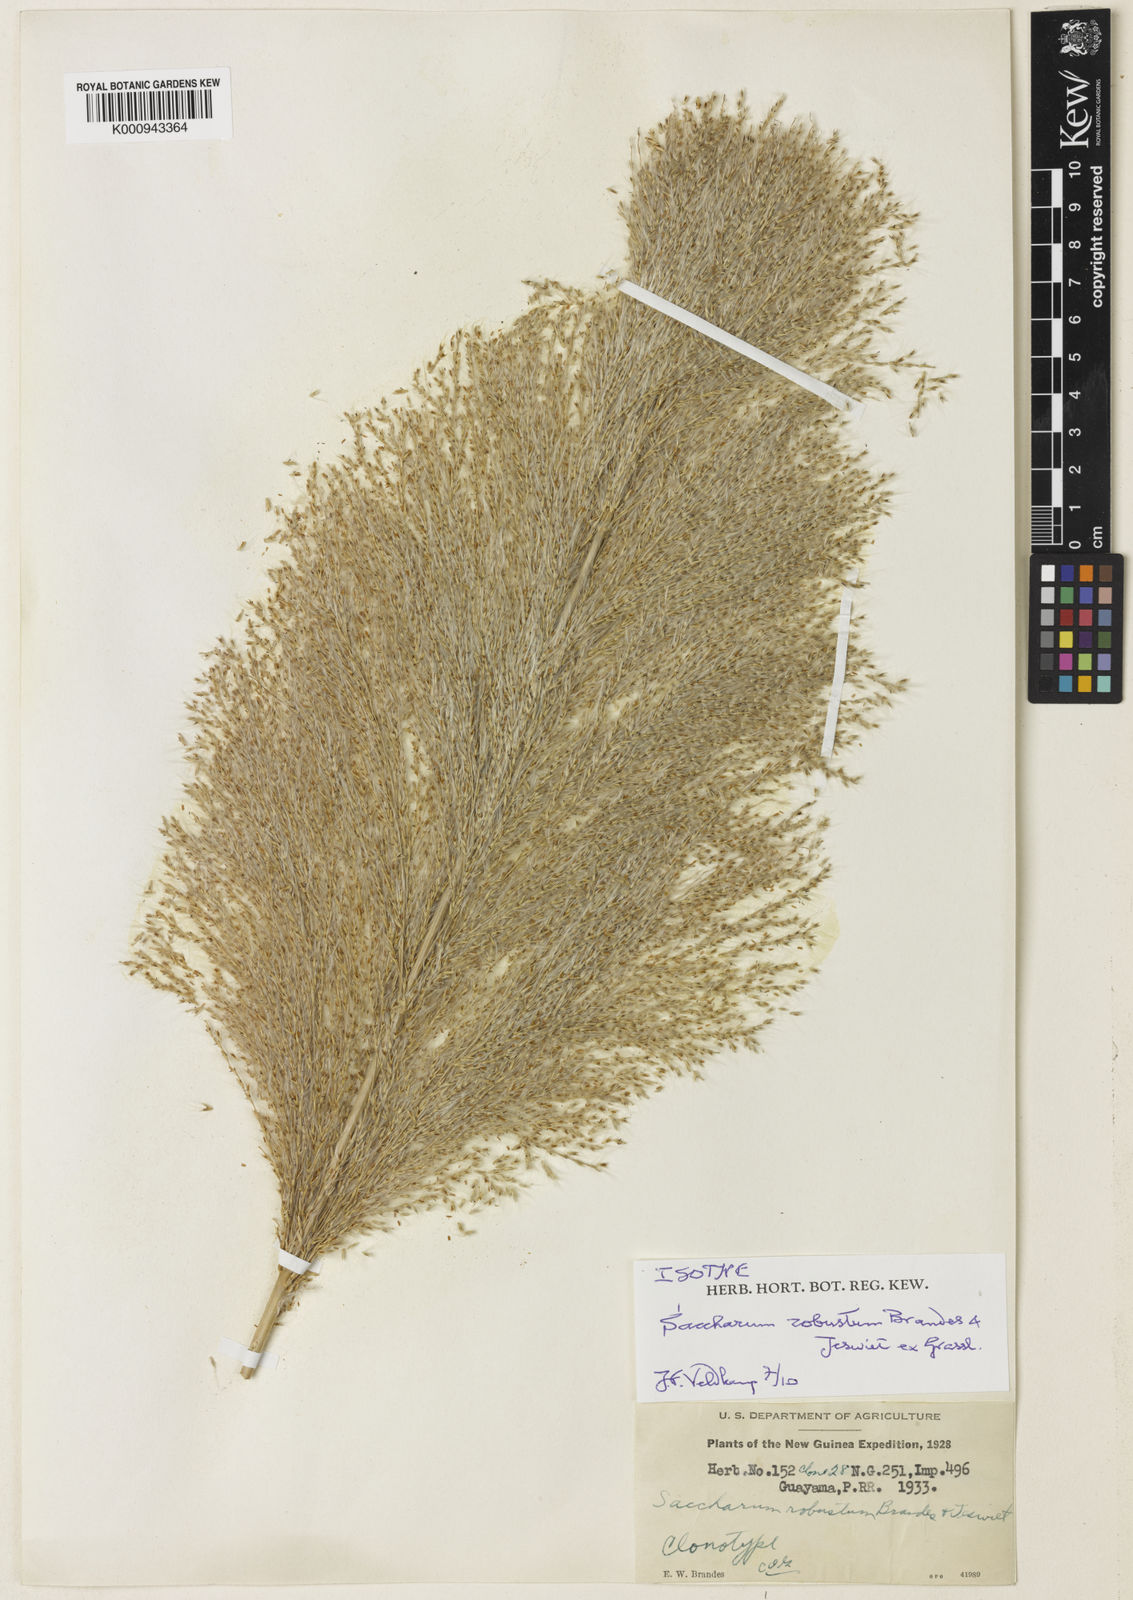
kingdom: Plantae
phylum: Tracheophyta
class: Liliopsida
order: Poales
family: Poaceae
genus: Saccharum
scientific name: Saccharum robustum
